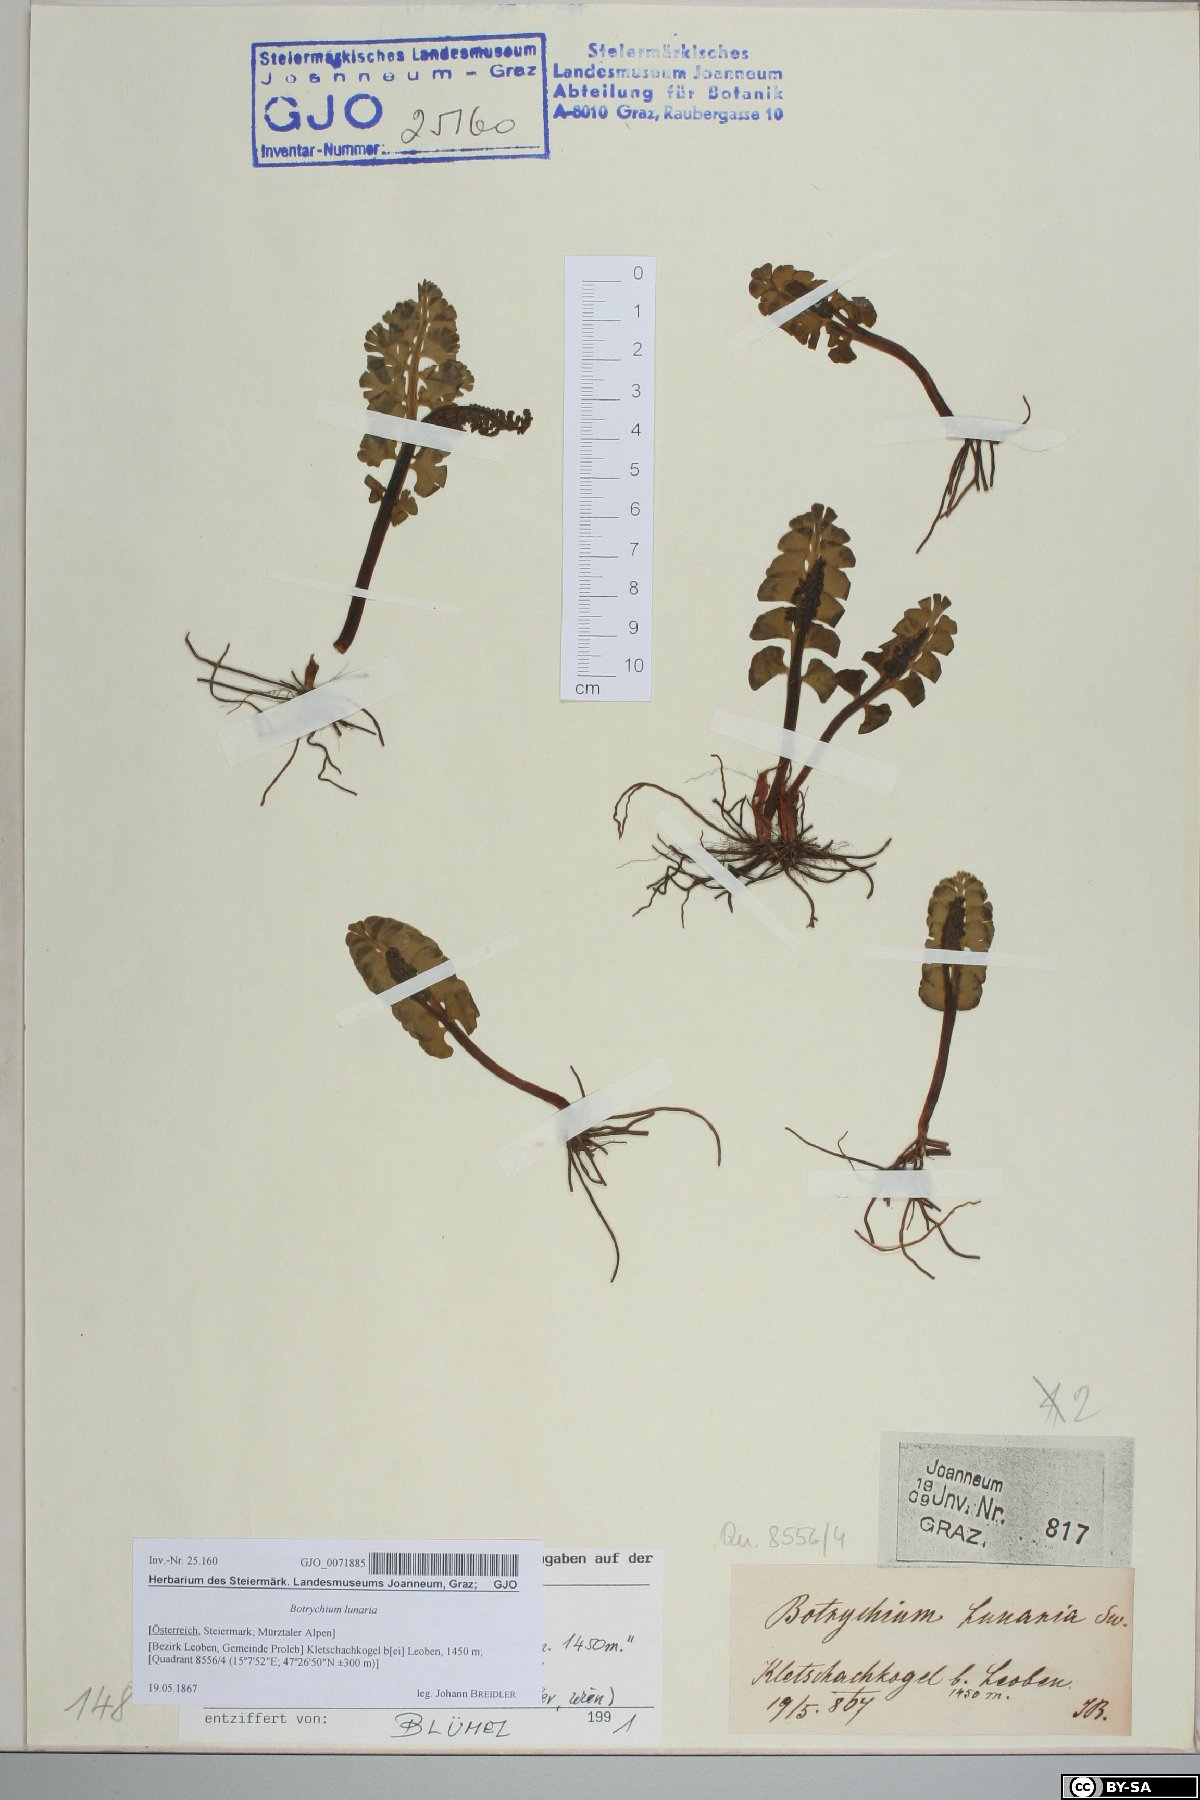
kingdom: Plantae
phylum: Tracheophyta
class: Polypodiopsida
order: Ophioglossales
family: Ophioglossaceae
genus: Botrychium
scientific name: Botrychium lunaria
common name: Moonwort
